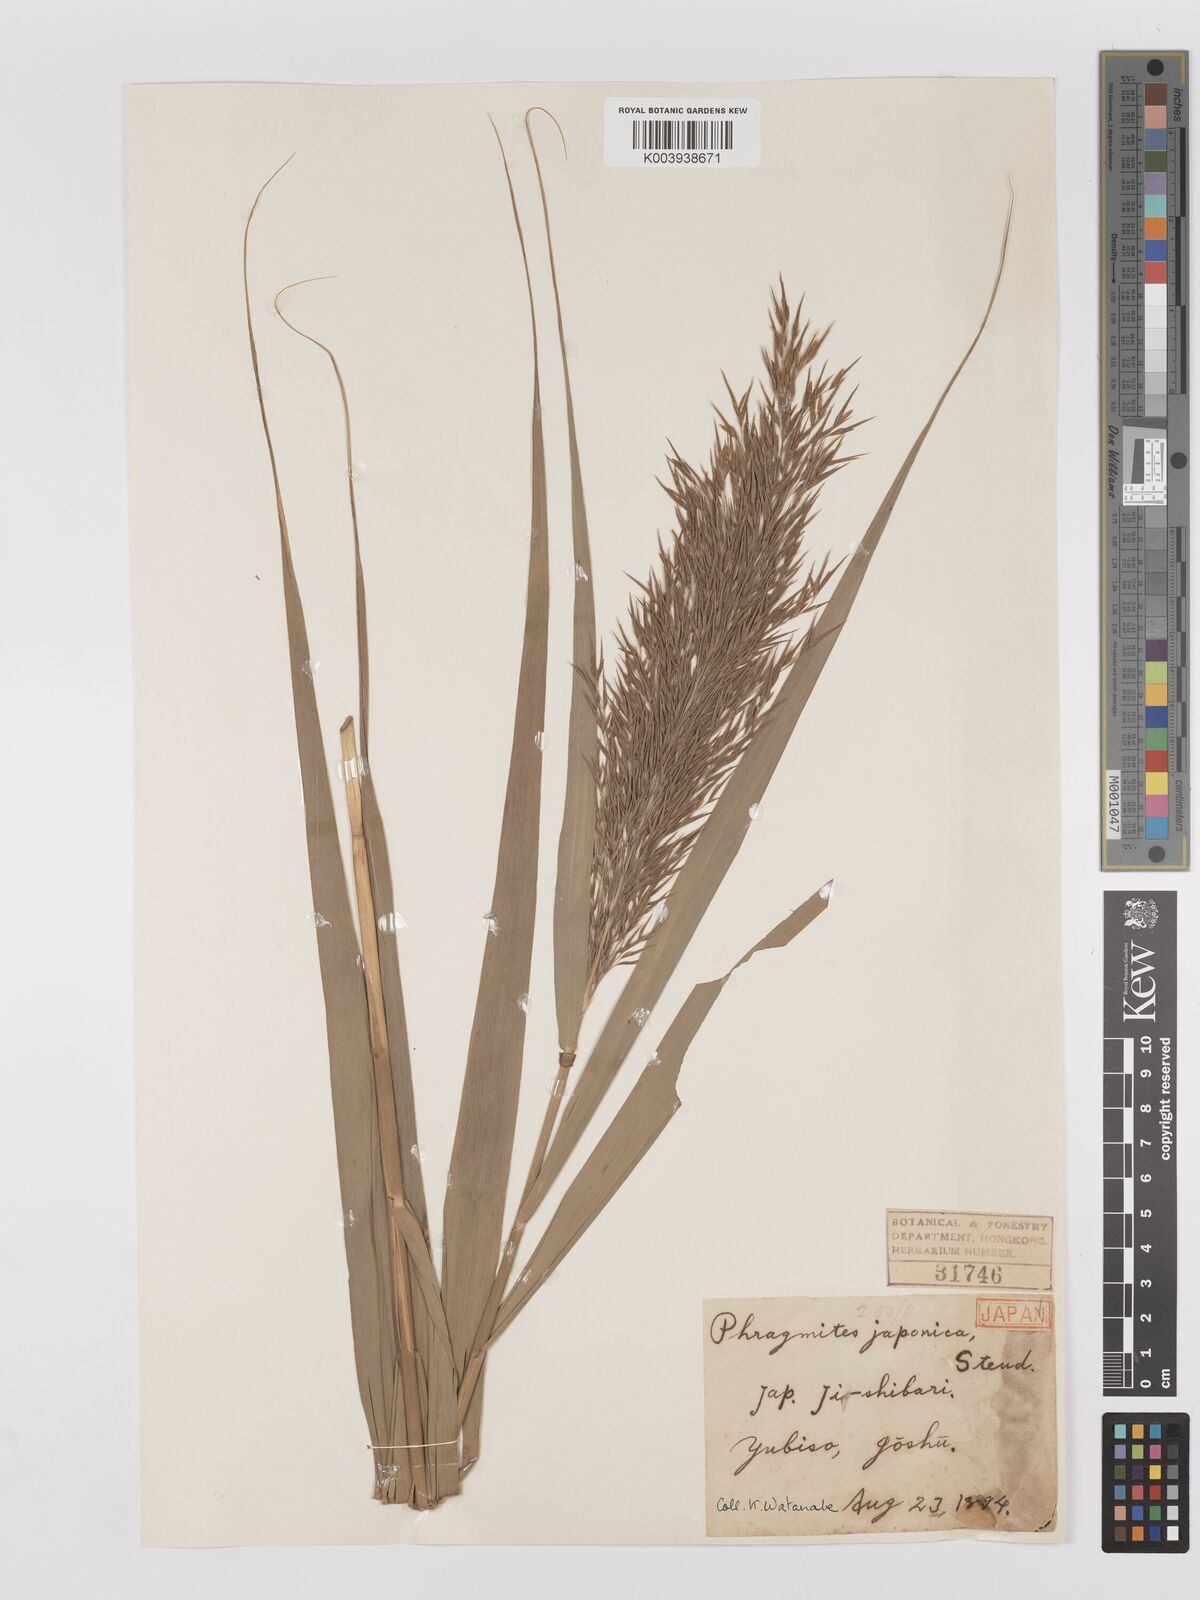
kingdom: Plantae
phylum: Tracheophyta
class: Liliopsida
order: Poales
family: Poaceae
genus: Phragmites
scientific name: Phragmites australis
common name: Common reed
